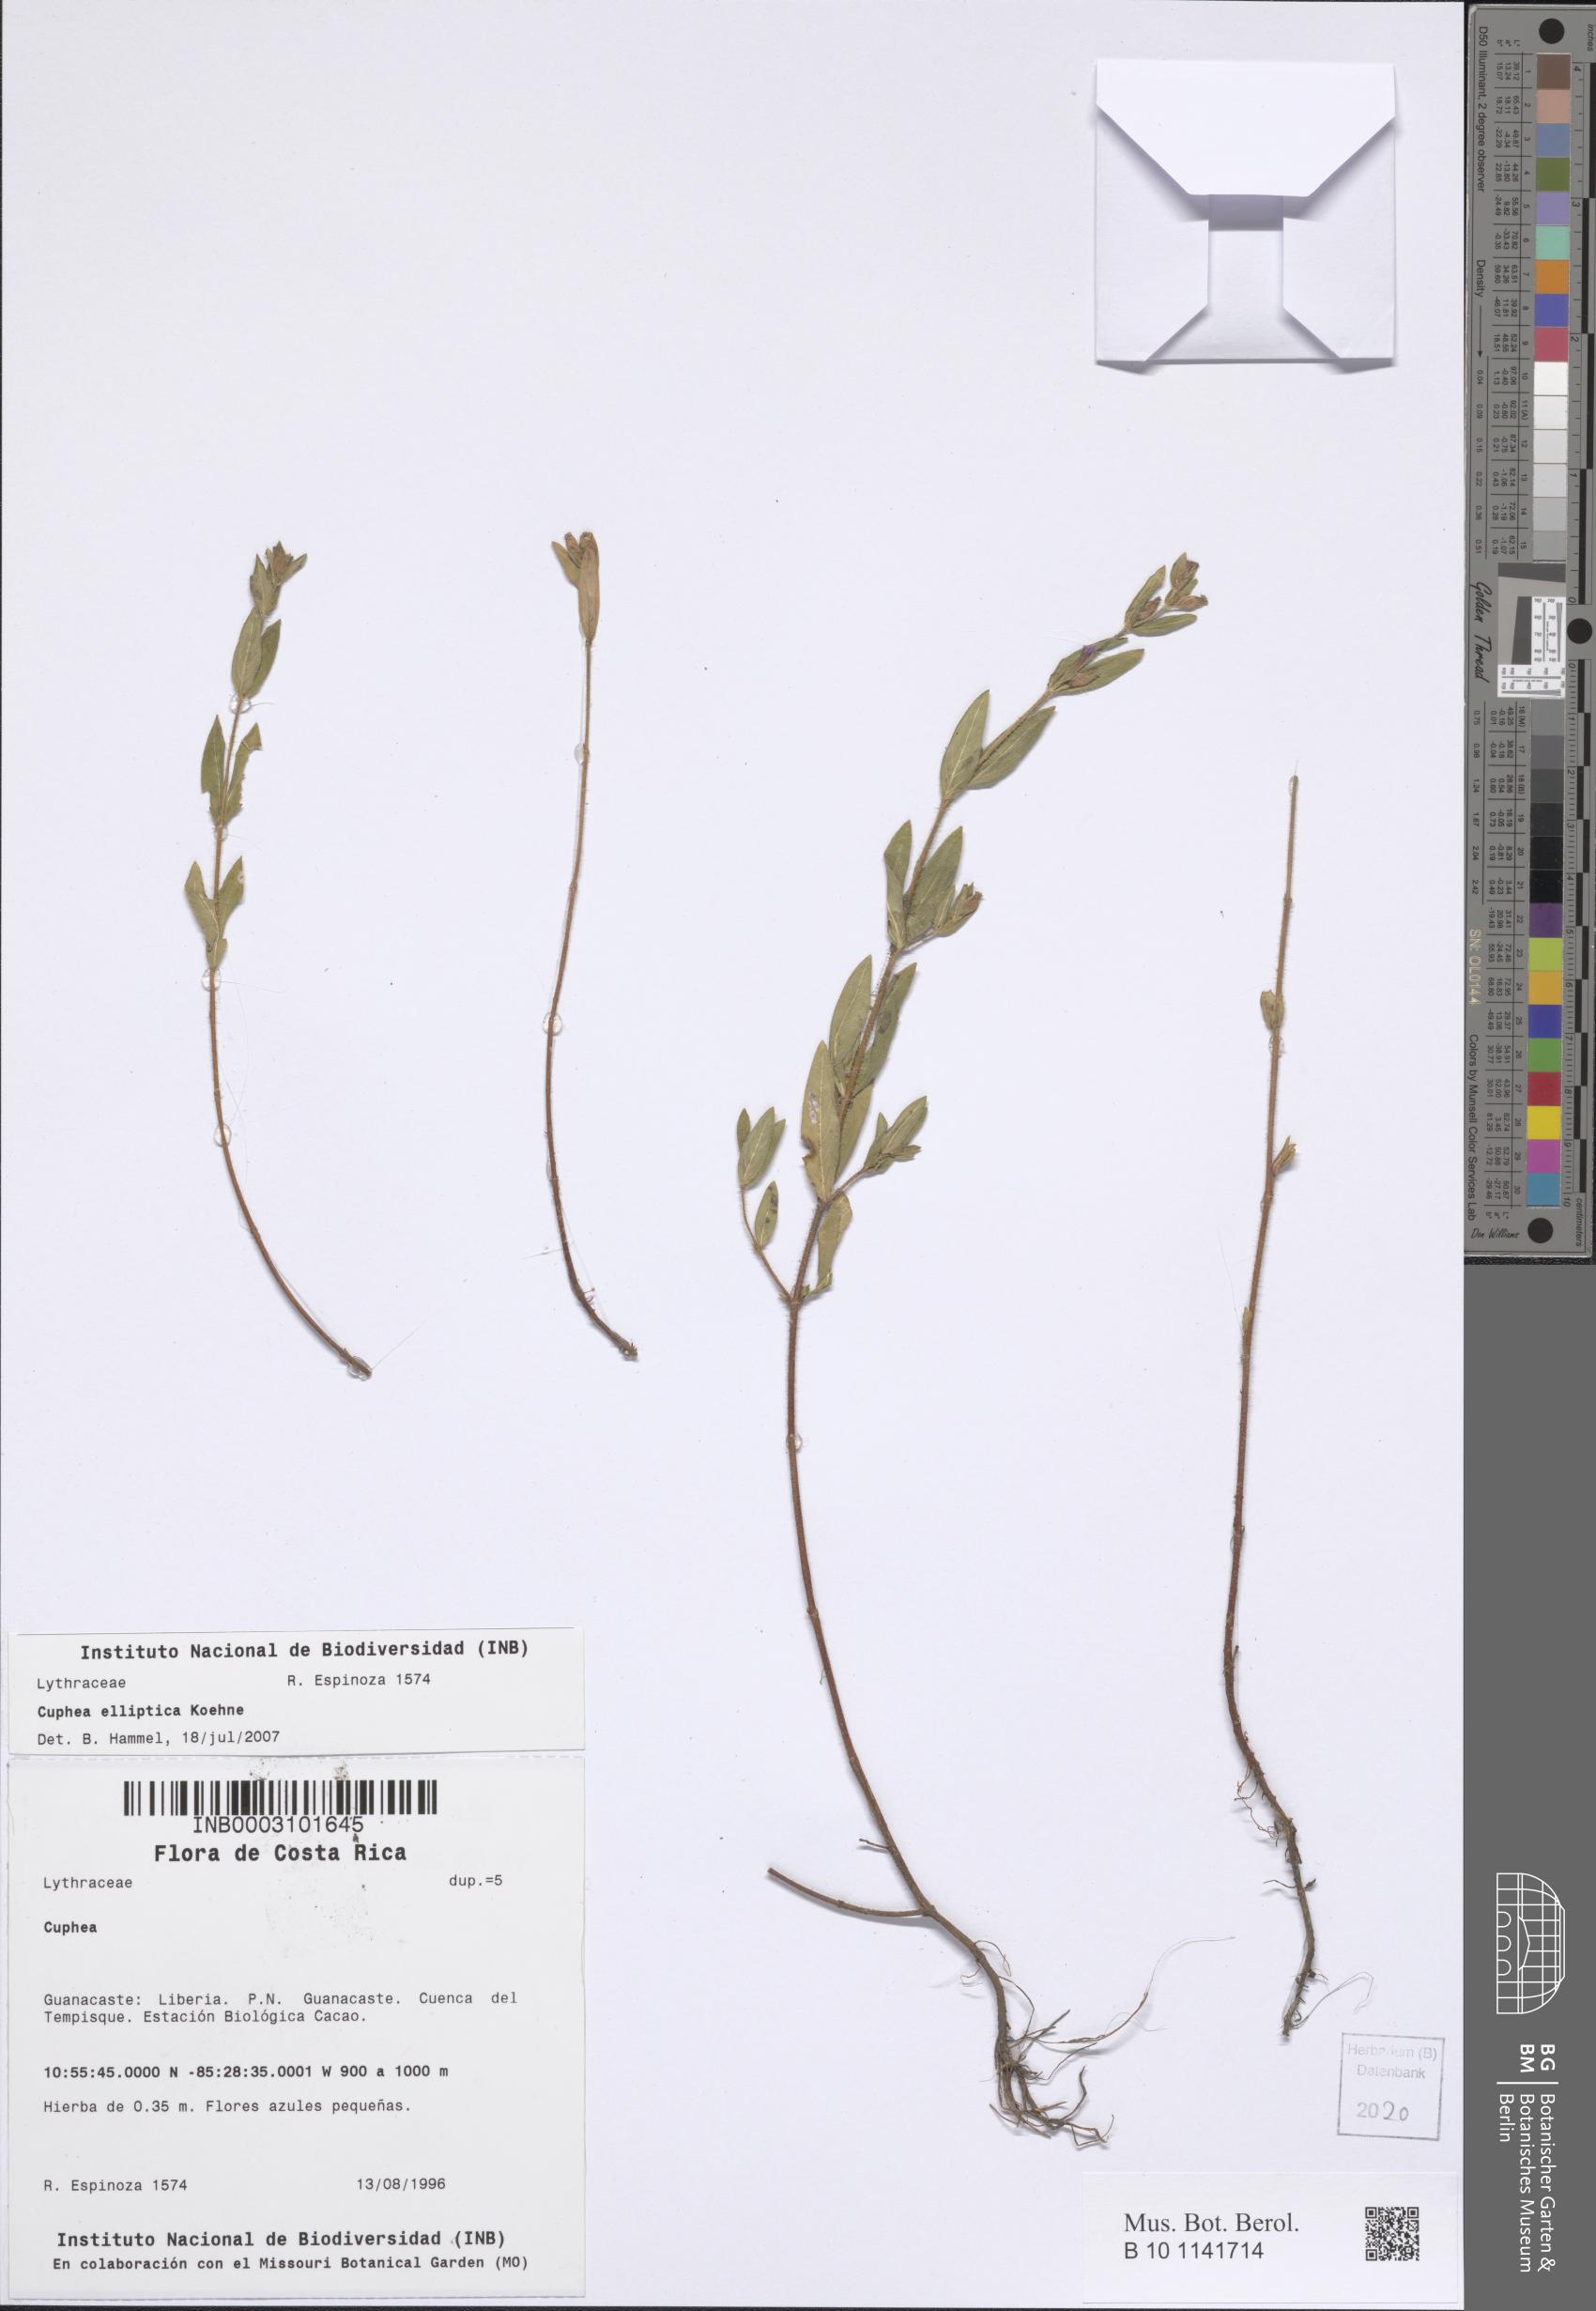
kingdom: Plantae
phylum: Tracheophyta
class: Magnoliopsida
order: Myrtales
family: Lythraceae
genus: Cuphea
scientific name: Cuphea elliptica
